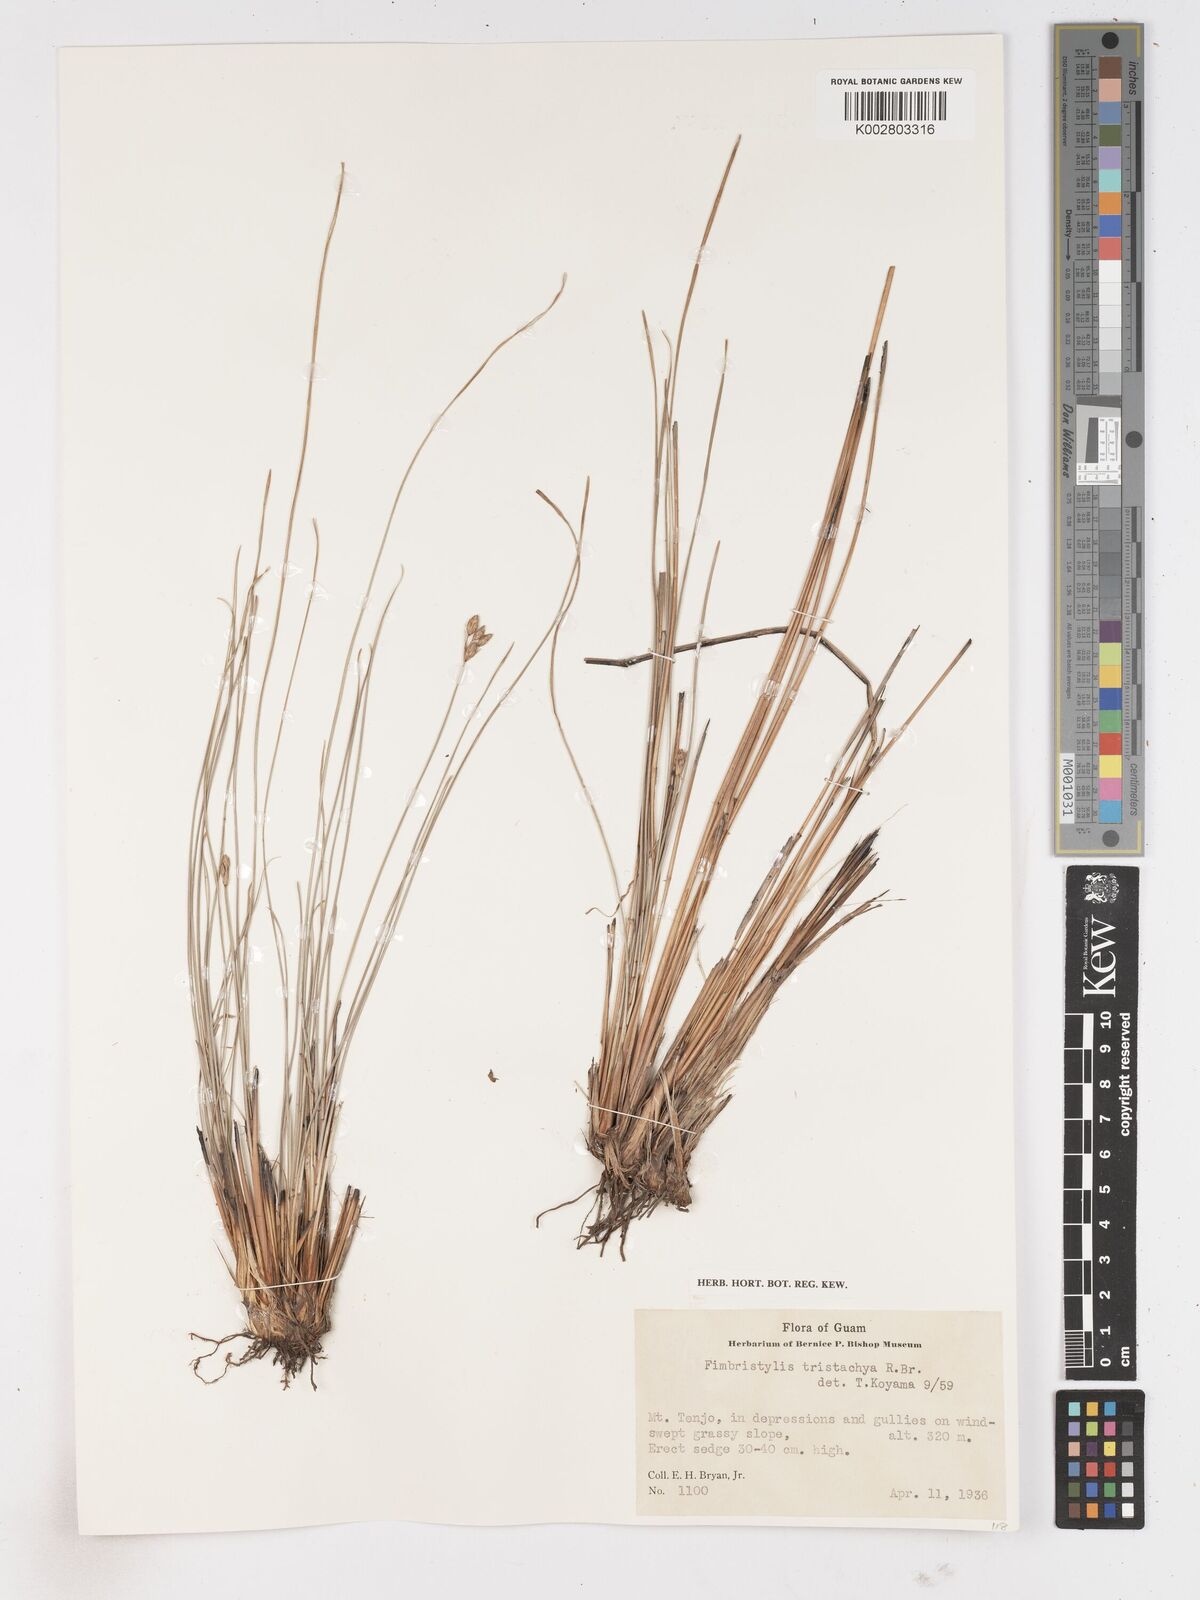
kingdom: Plantae
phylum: Tracheophyta
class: Liliopsida
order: Poales
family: Cyperaceae
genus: Fimbristylis
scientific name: Fimbristylis tristachya
